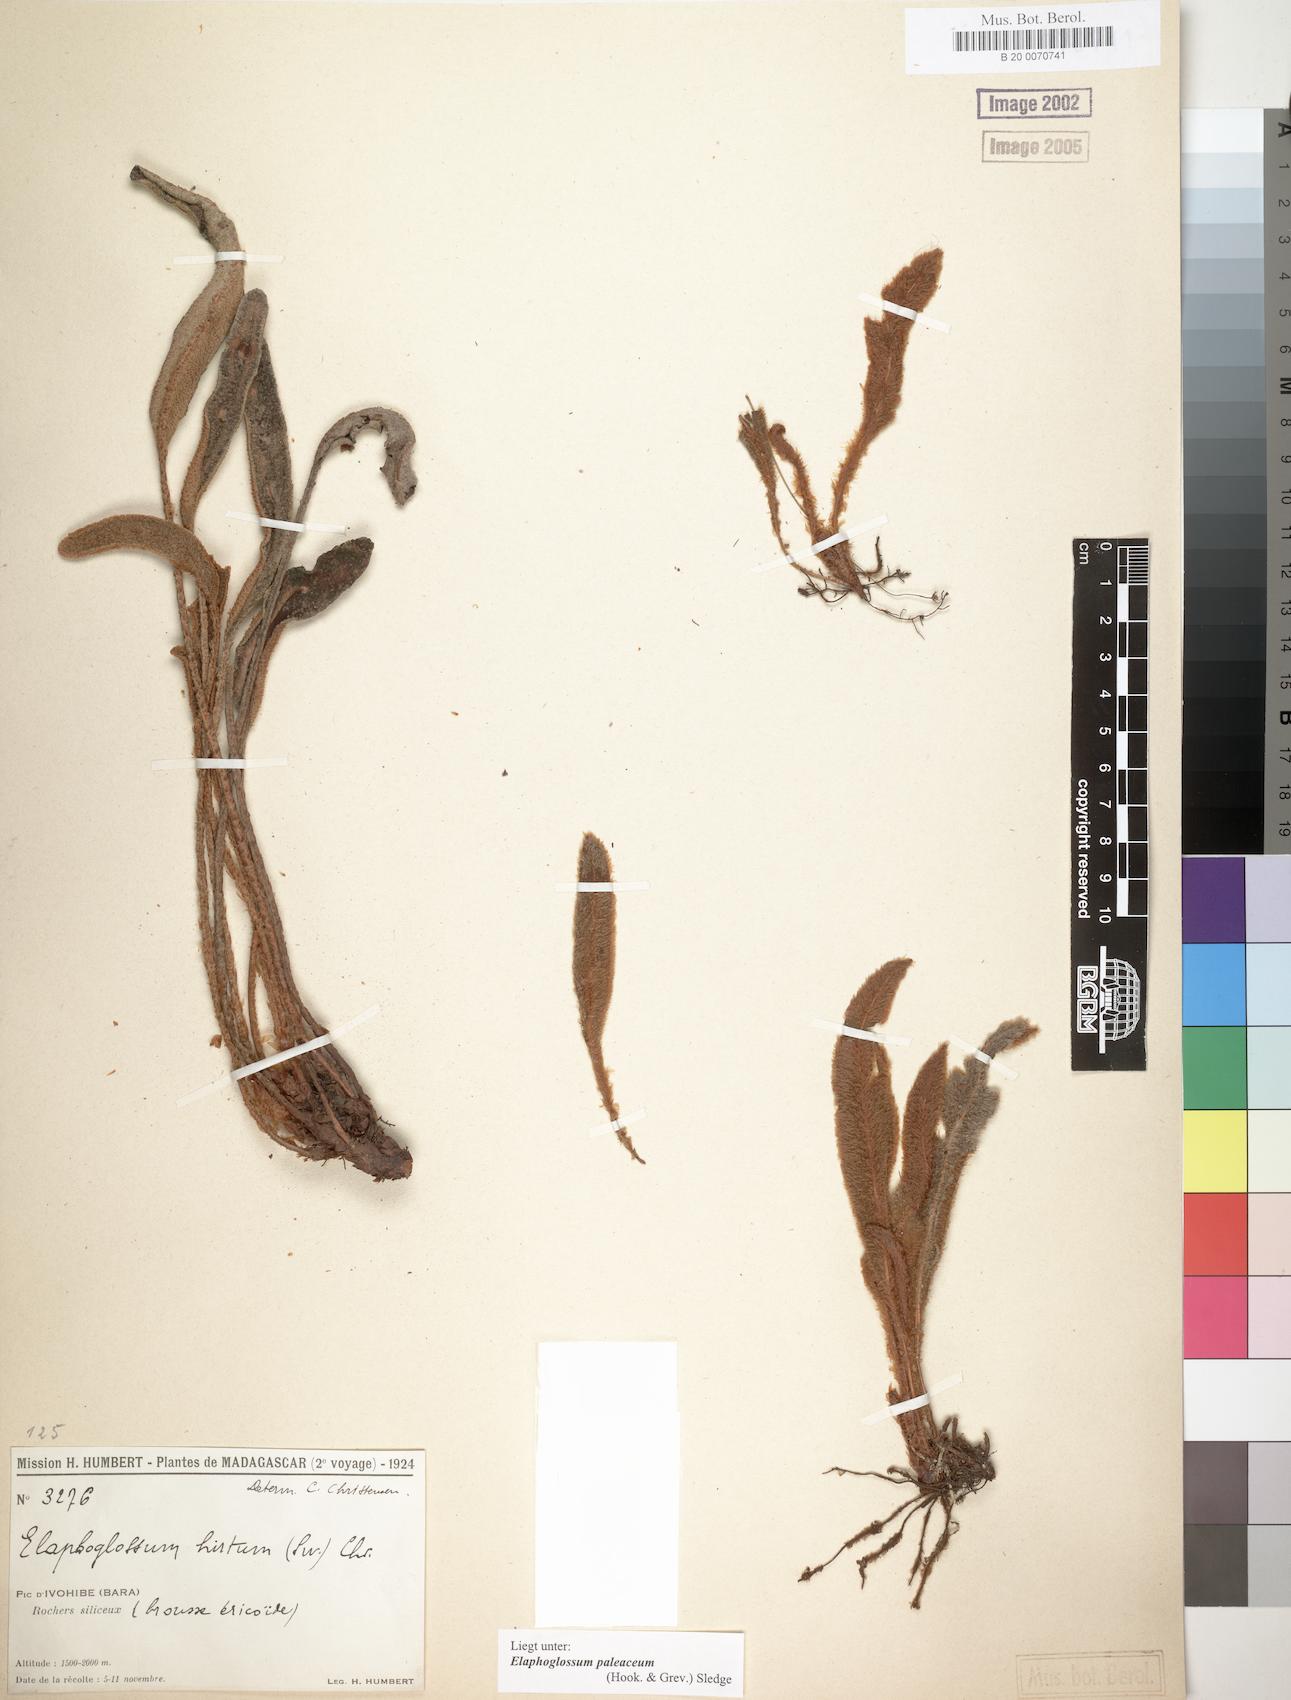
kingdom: Plantae
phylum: Tracheophyta
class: Polypodiopsida
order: Polypodiales
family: Dryopteridaceae
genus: Elaphoglossum
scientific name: Elaphoglossum paleaceum
